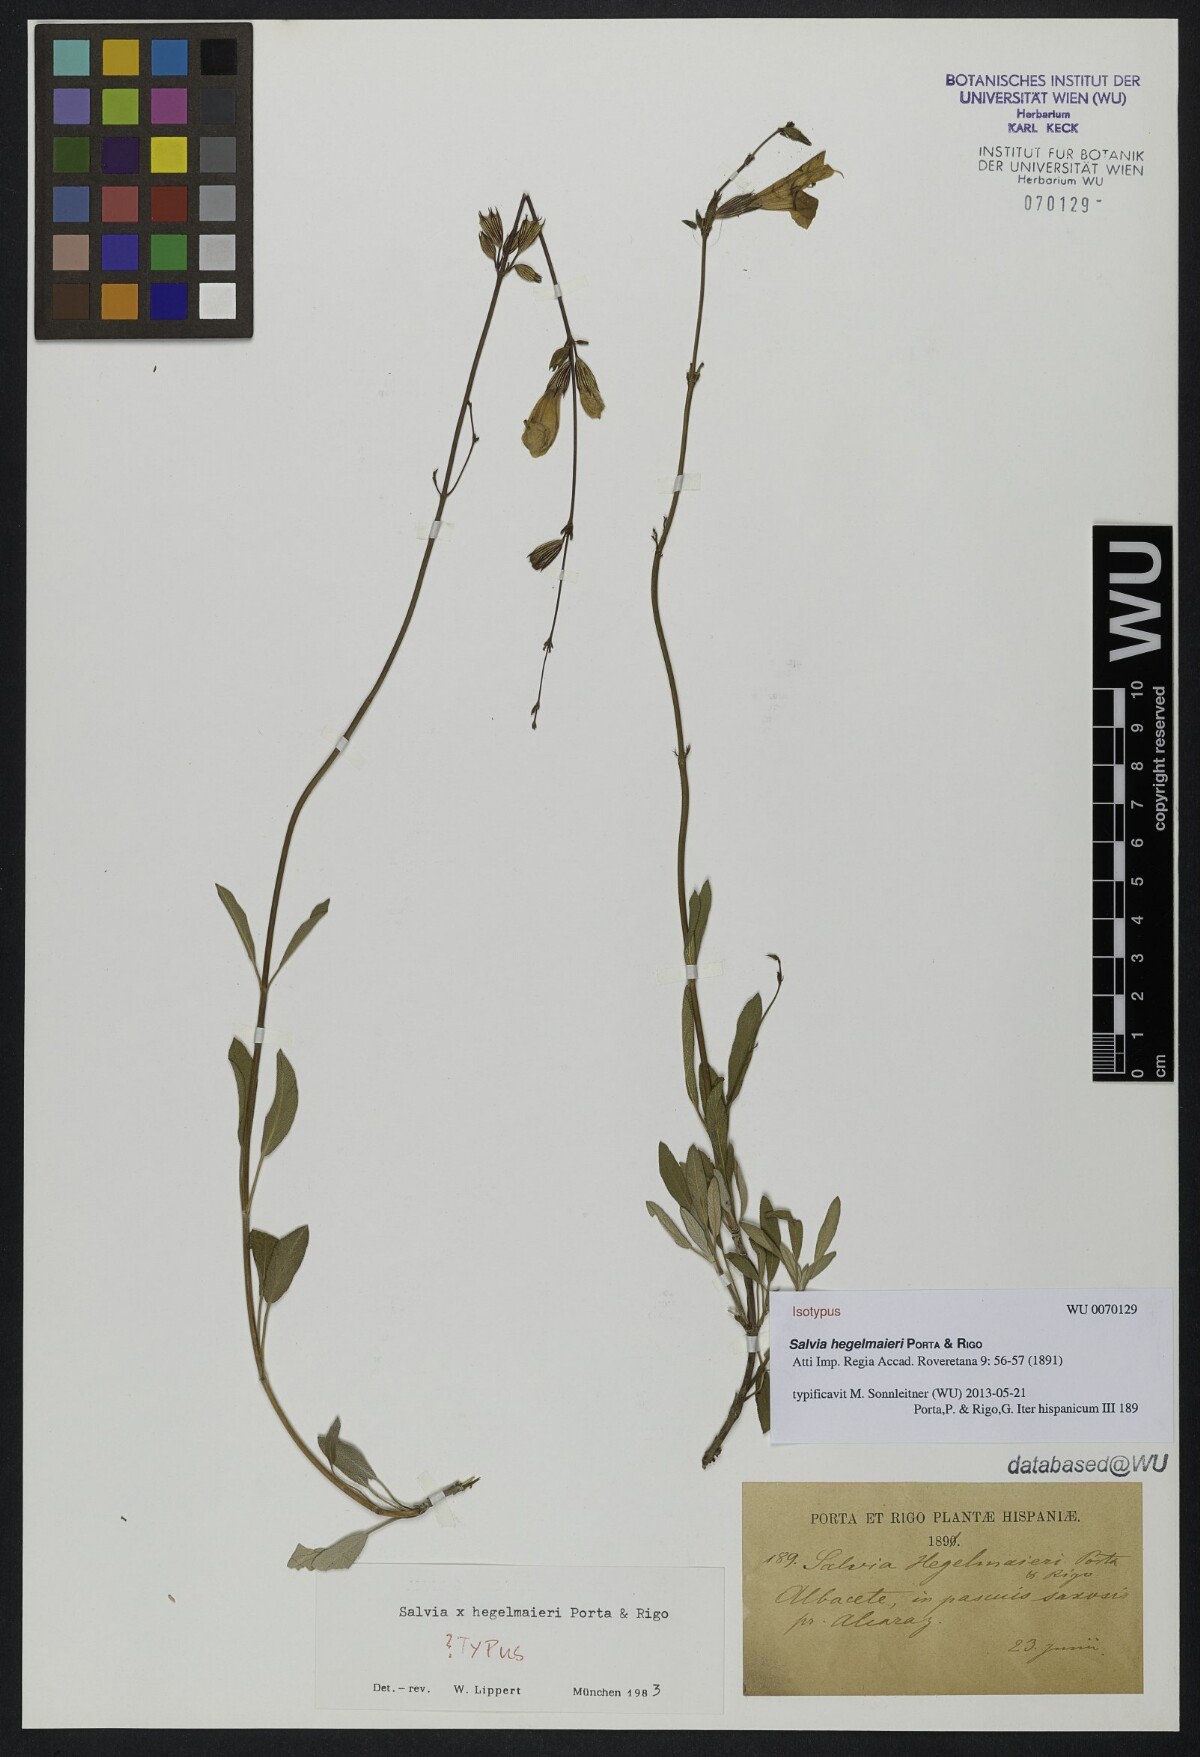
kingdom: Plantae
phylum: Tracheophyta
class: Magnoliopsida
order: Lamiales
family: Lamiaceae
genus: Salvia
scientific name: Salvia hegelmaieri
